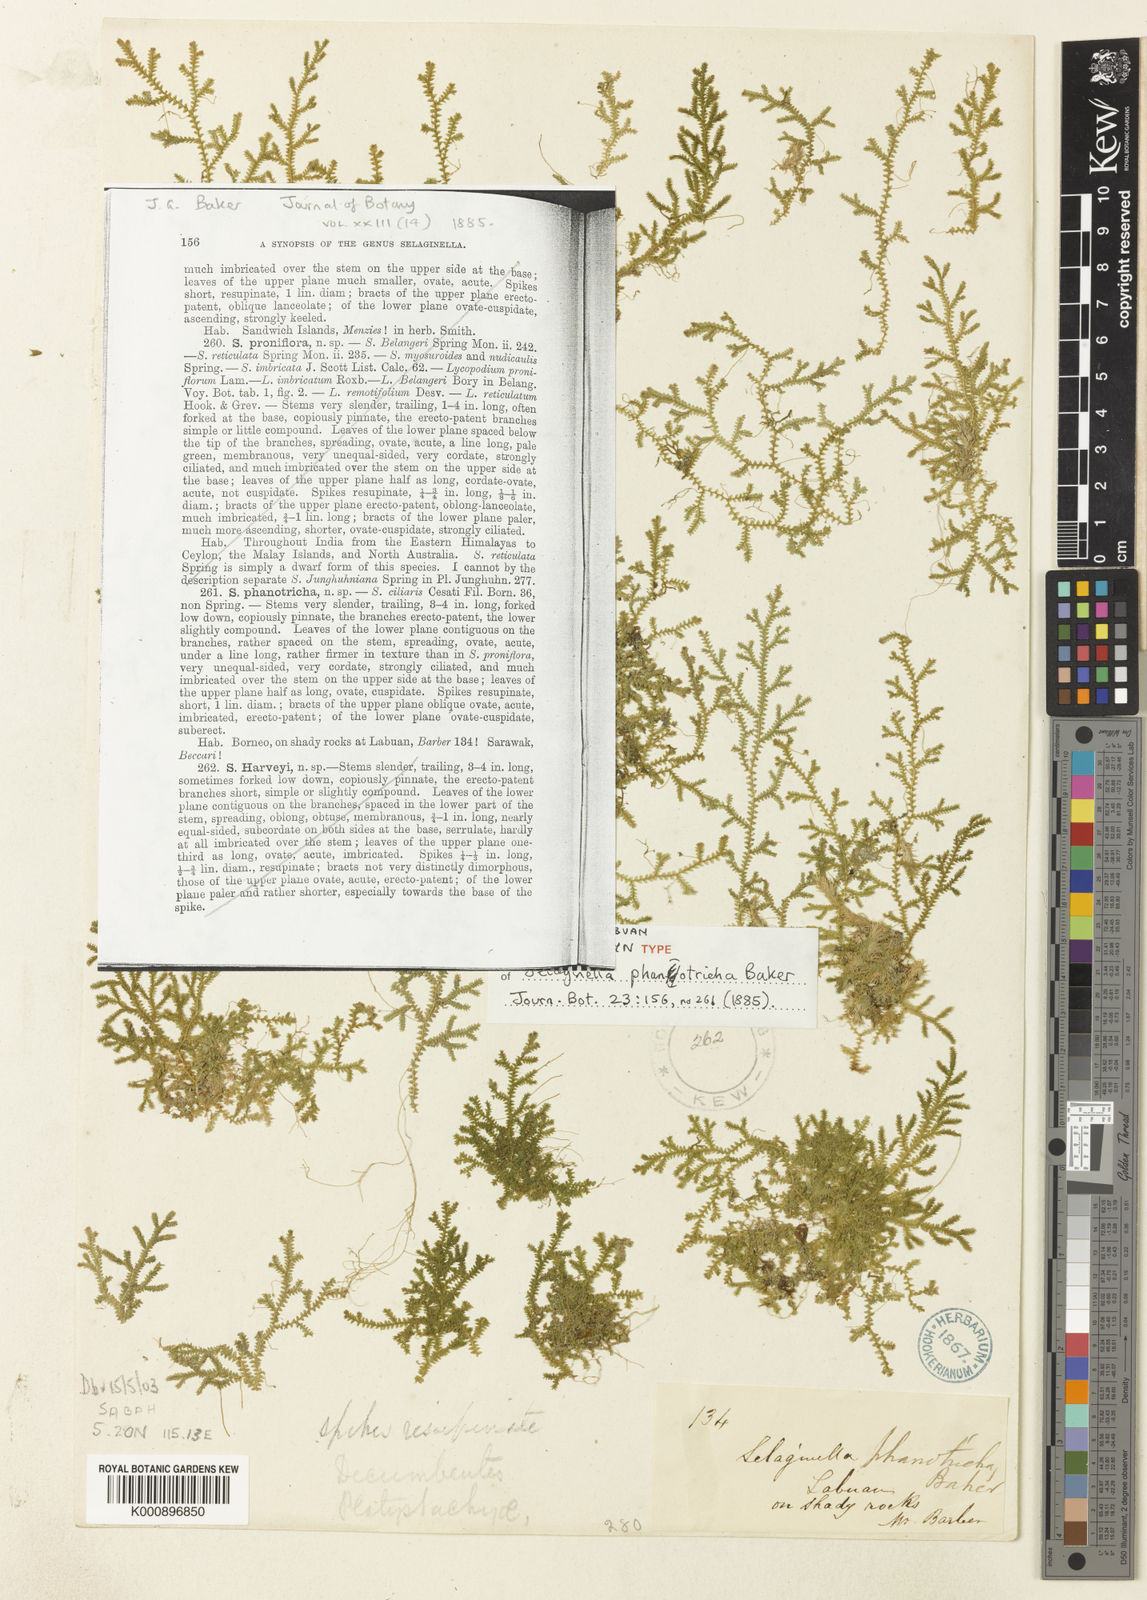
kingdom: Plantae
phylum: Tracheophyta
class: Lycopodiopsida
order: Selaginellales
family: Selaginellaceae
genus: Selaginella
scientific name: Selaginella phanotricha
